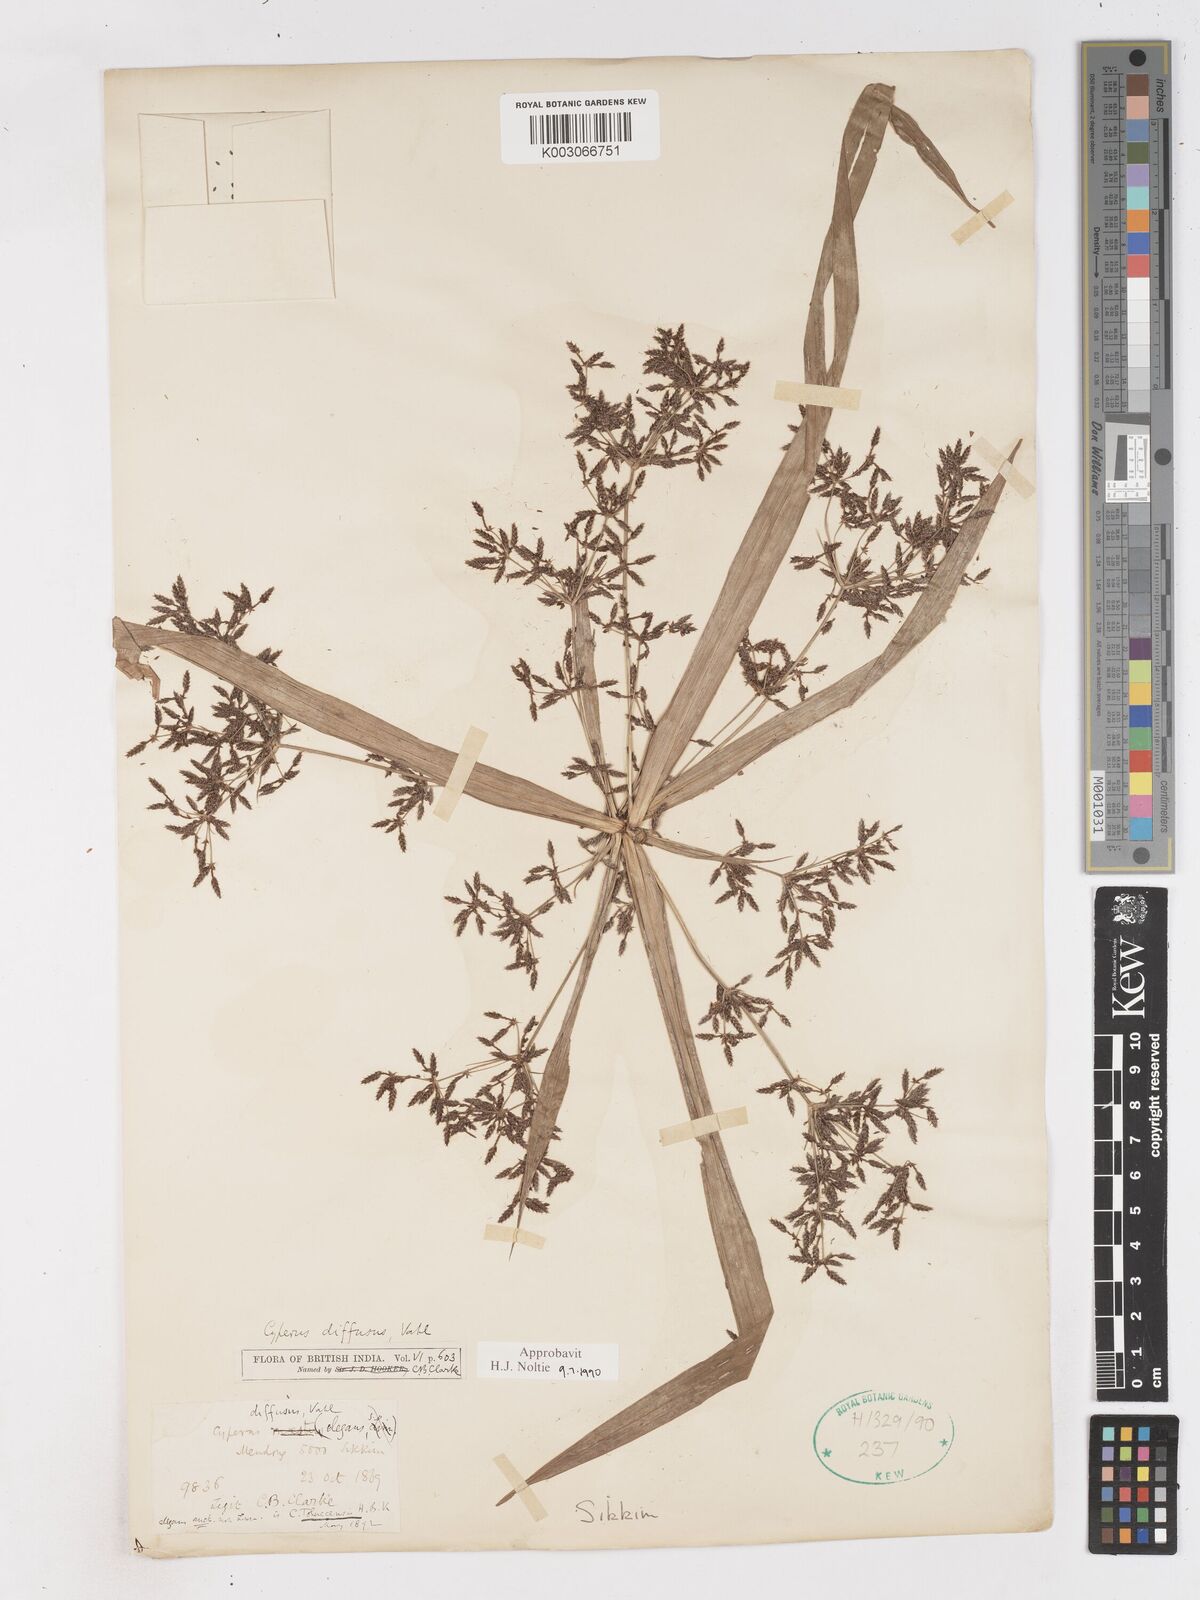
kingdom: Plantae
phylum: Tracheophyta
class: Liliopsida
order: Poales
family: Cyperaceae
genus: Cyperus
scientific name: Cyperus diffusus
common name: Dwarf umbrella grass
